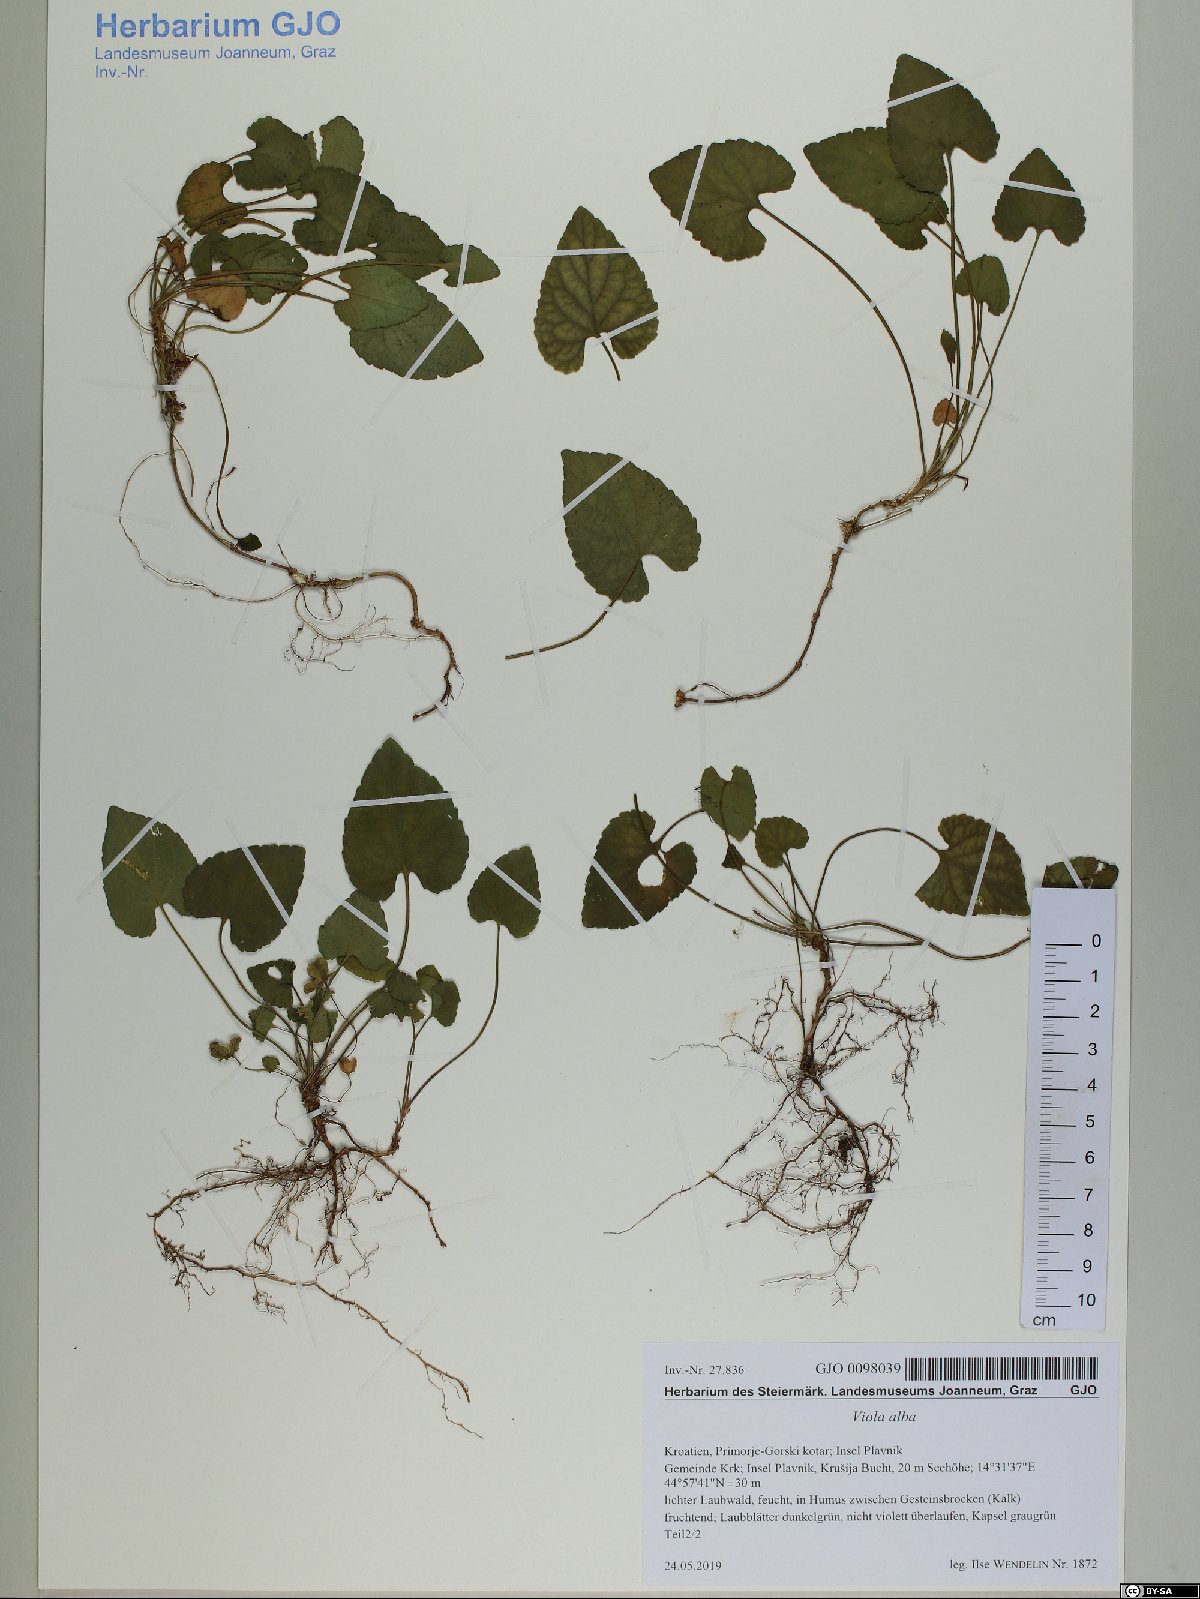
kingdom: Plantae
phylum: Tracheophyta
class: Magnoliopsida
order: Malpighiales
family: Violaceae
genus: Viola
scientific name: Viola alba
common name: White violet
